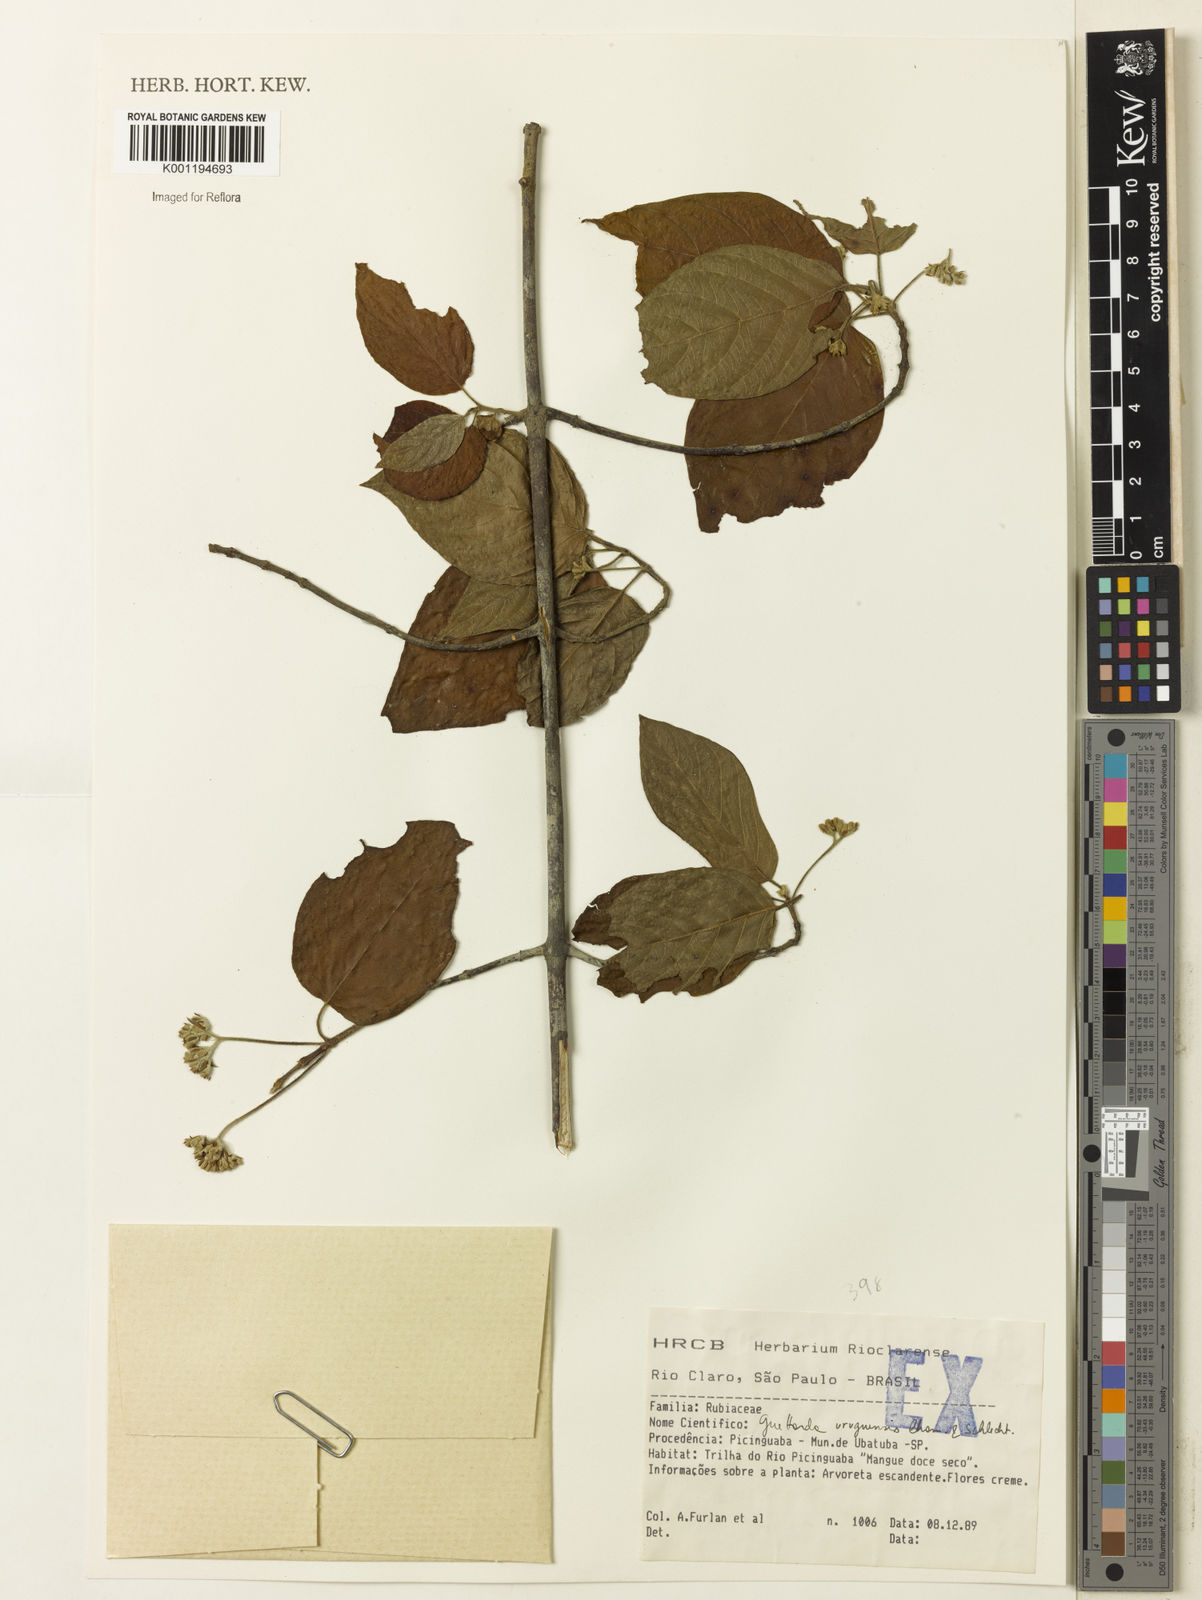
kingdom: Plantae
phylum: Tracheophyta
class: Magnoliopsida
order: Gentianales
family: Rubiaceae
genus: Guettarda
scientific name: Guettarda uruguensis
